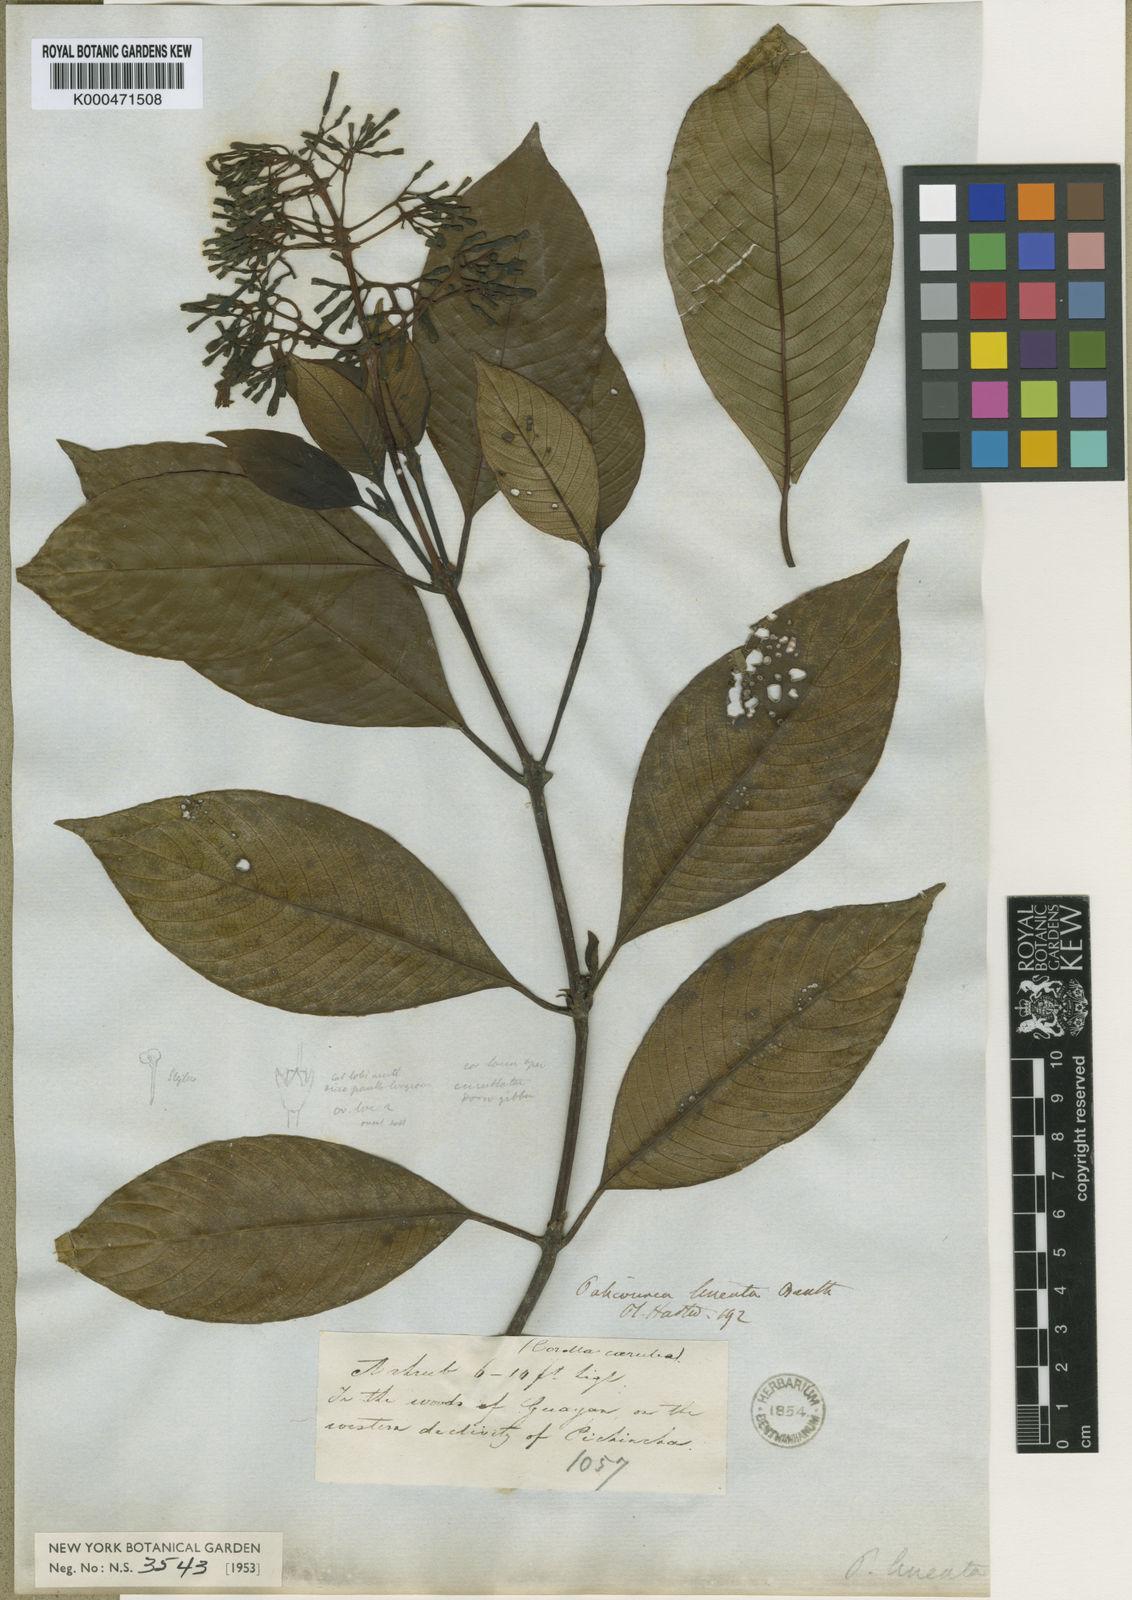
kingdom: Plantae
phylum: Tracheophyta
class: Magnoliopsida
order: Gentianales
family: Rubiaceae
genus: Palicourea
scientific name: Palicourea lineata
